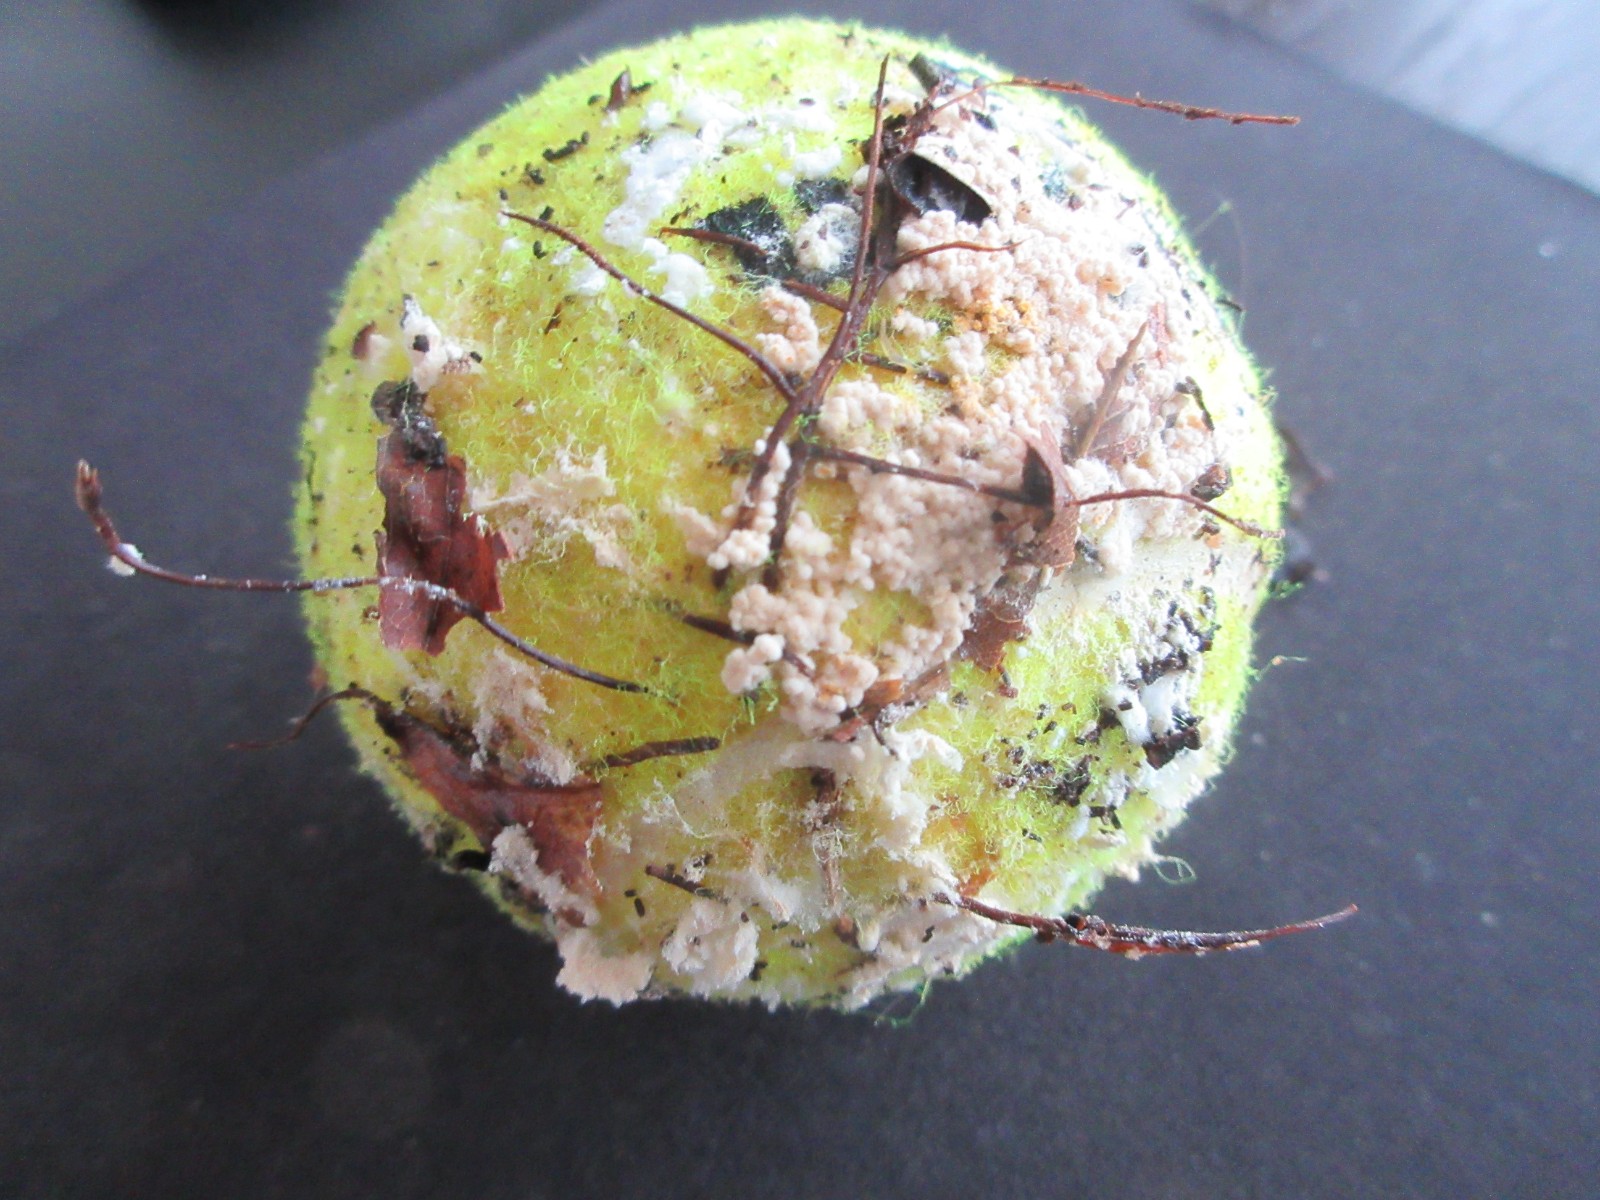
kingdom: Fungi
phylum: Ascomycota
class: Eurotiomycetes
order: Onygenales
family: Arthrodermataceae
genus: Arthroderma
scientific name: Arthroderma
